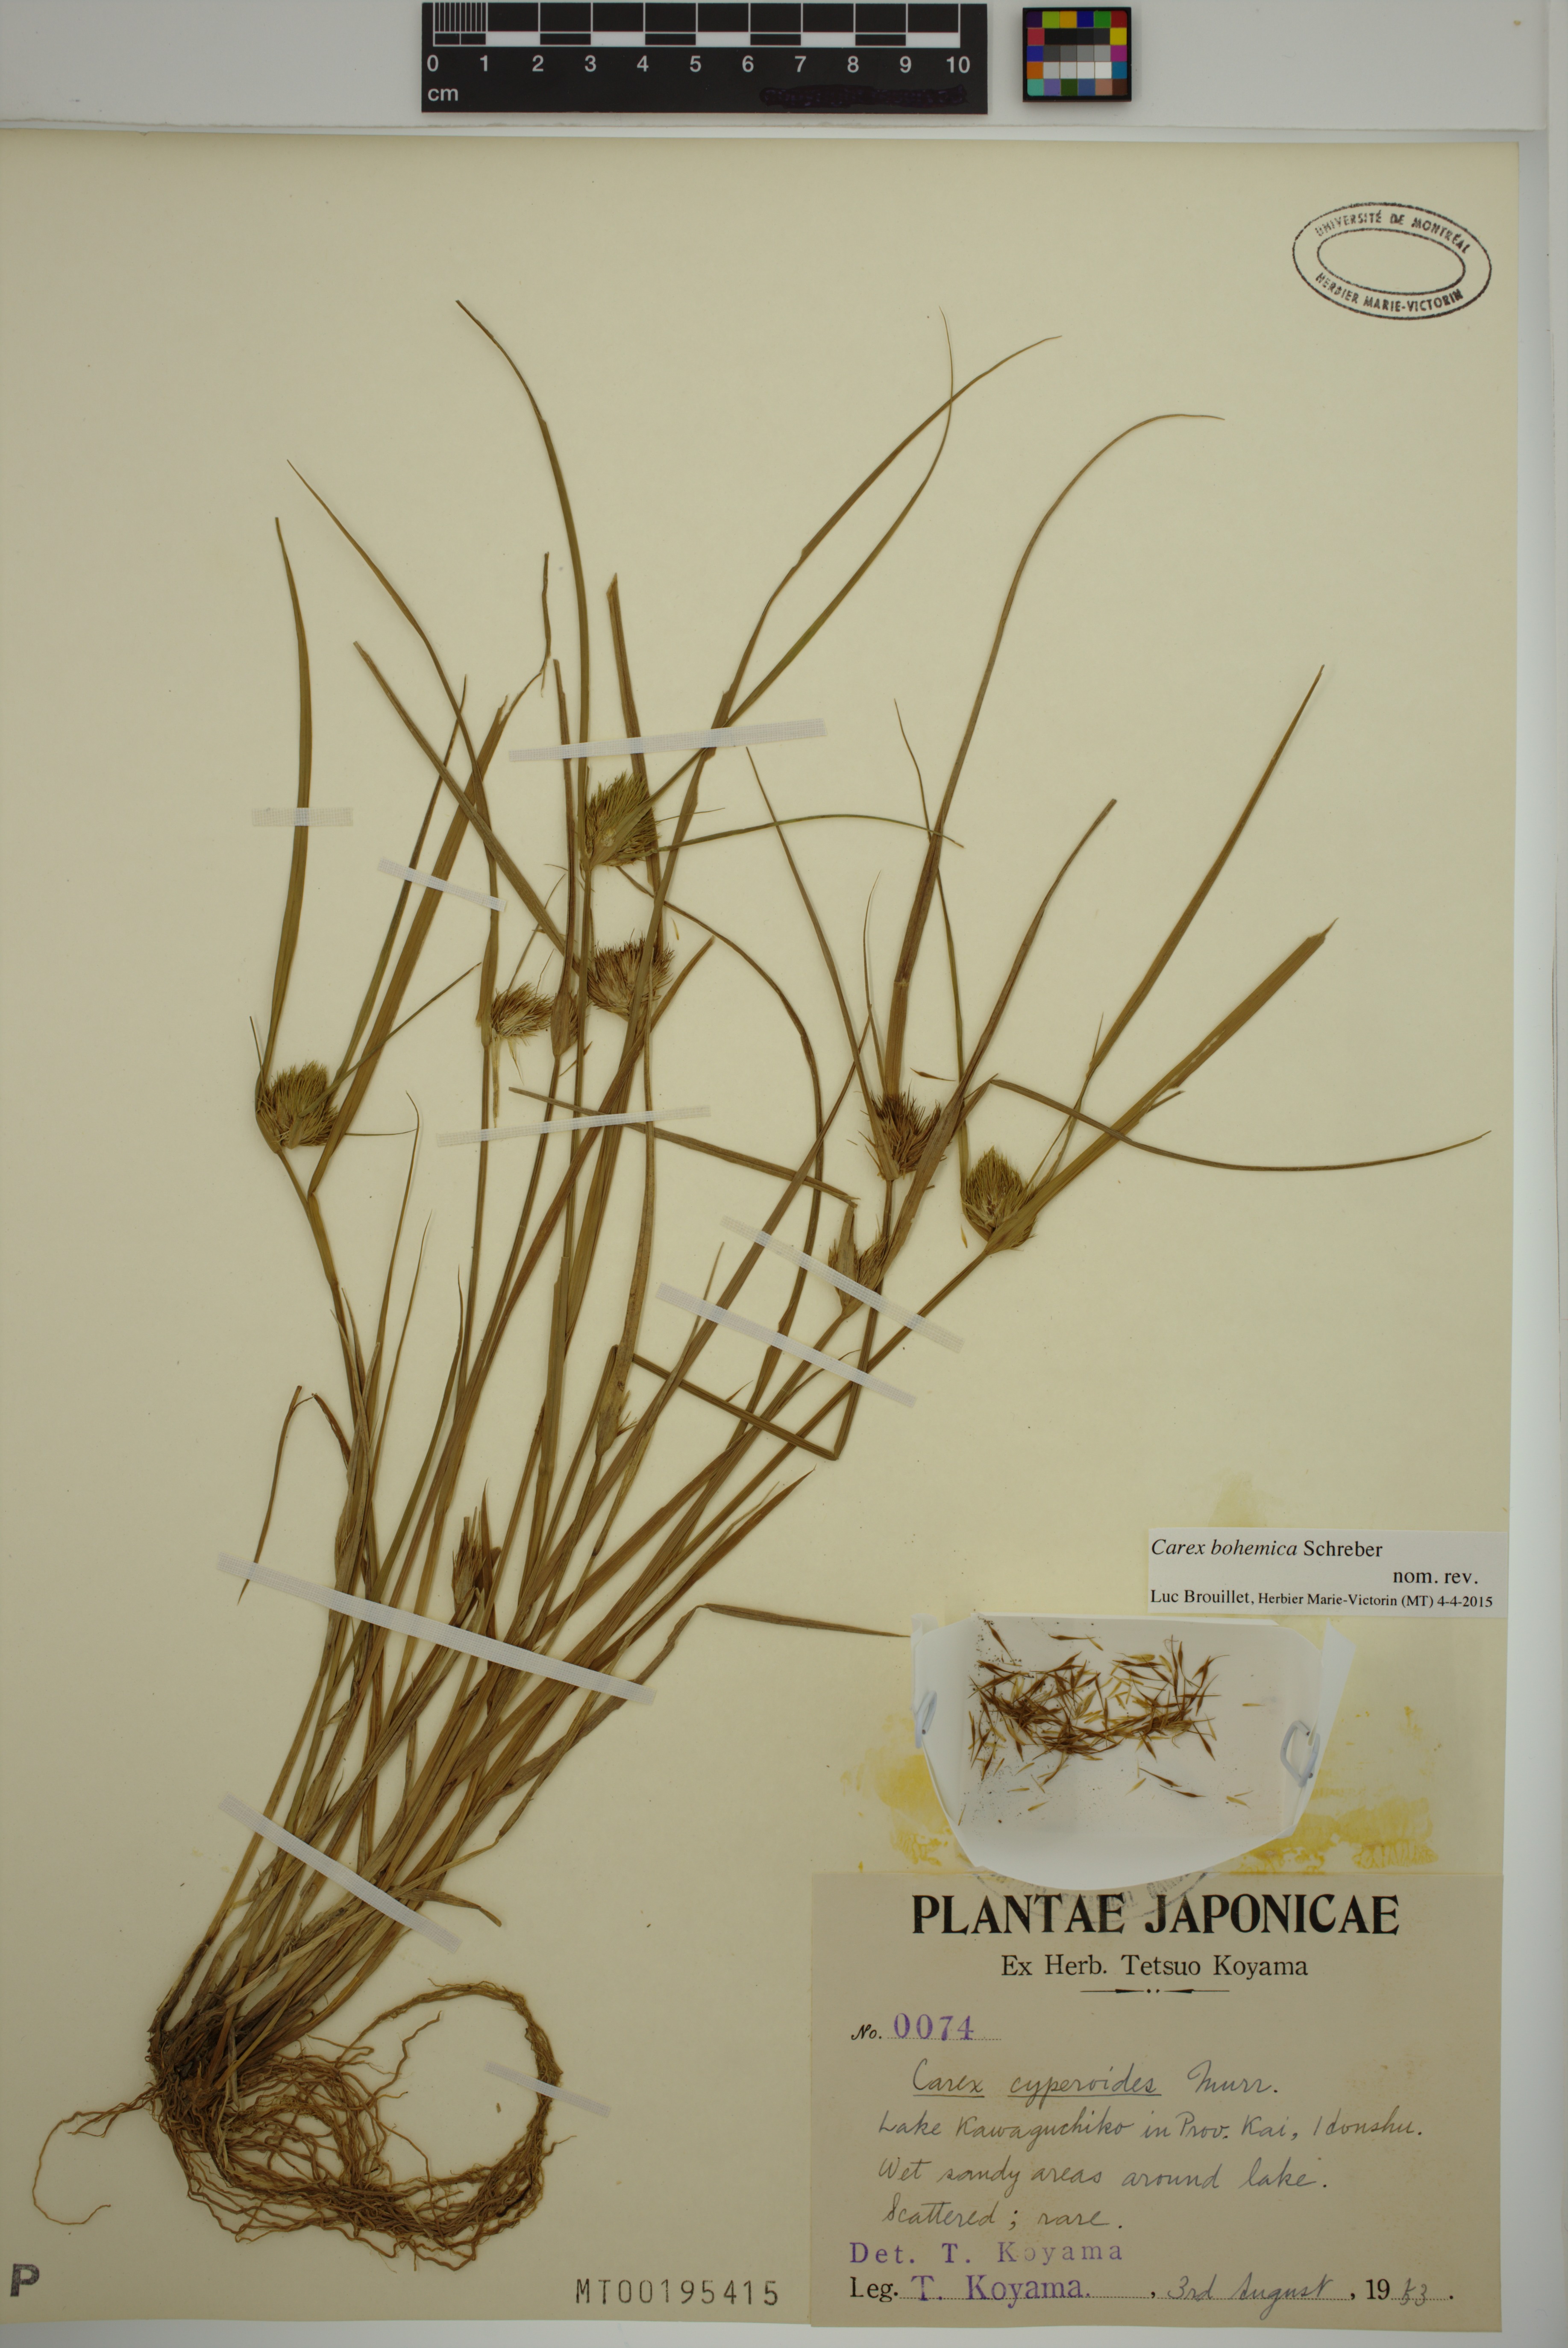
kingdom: Plantae
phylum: Tracheophyta
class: Liliopsida
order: Poales
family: Cyperaceae
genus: Carex
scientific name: Carex bohemica
